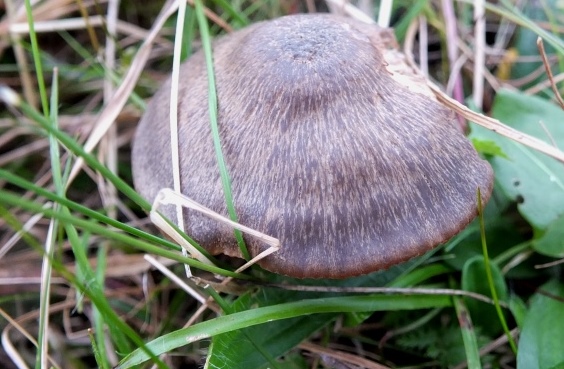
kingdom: Fungi
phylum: Basidiomycota
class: Agaricomycetes
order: Agaricales
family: Hygrophoraceae
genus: Neohygrocybe
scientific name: Neohygrocybe nitrata
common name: stinkende vokshat
